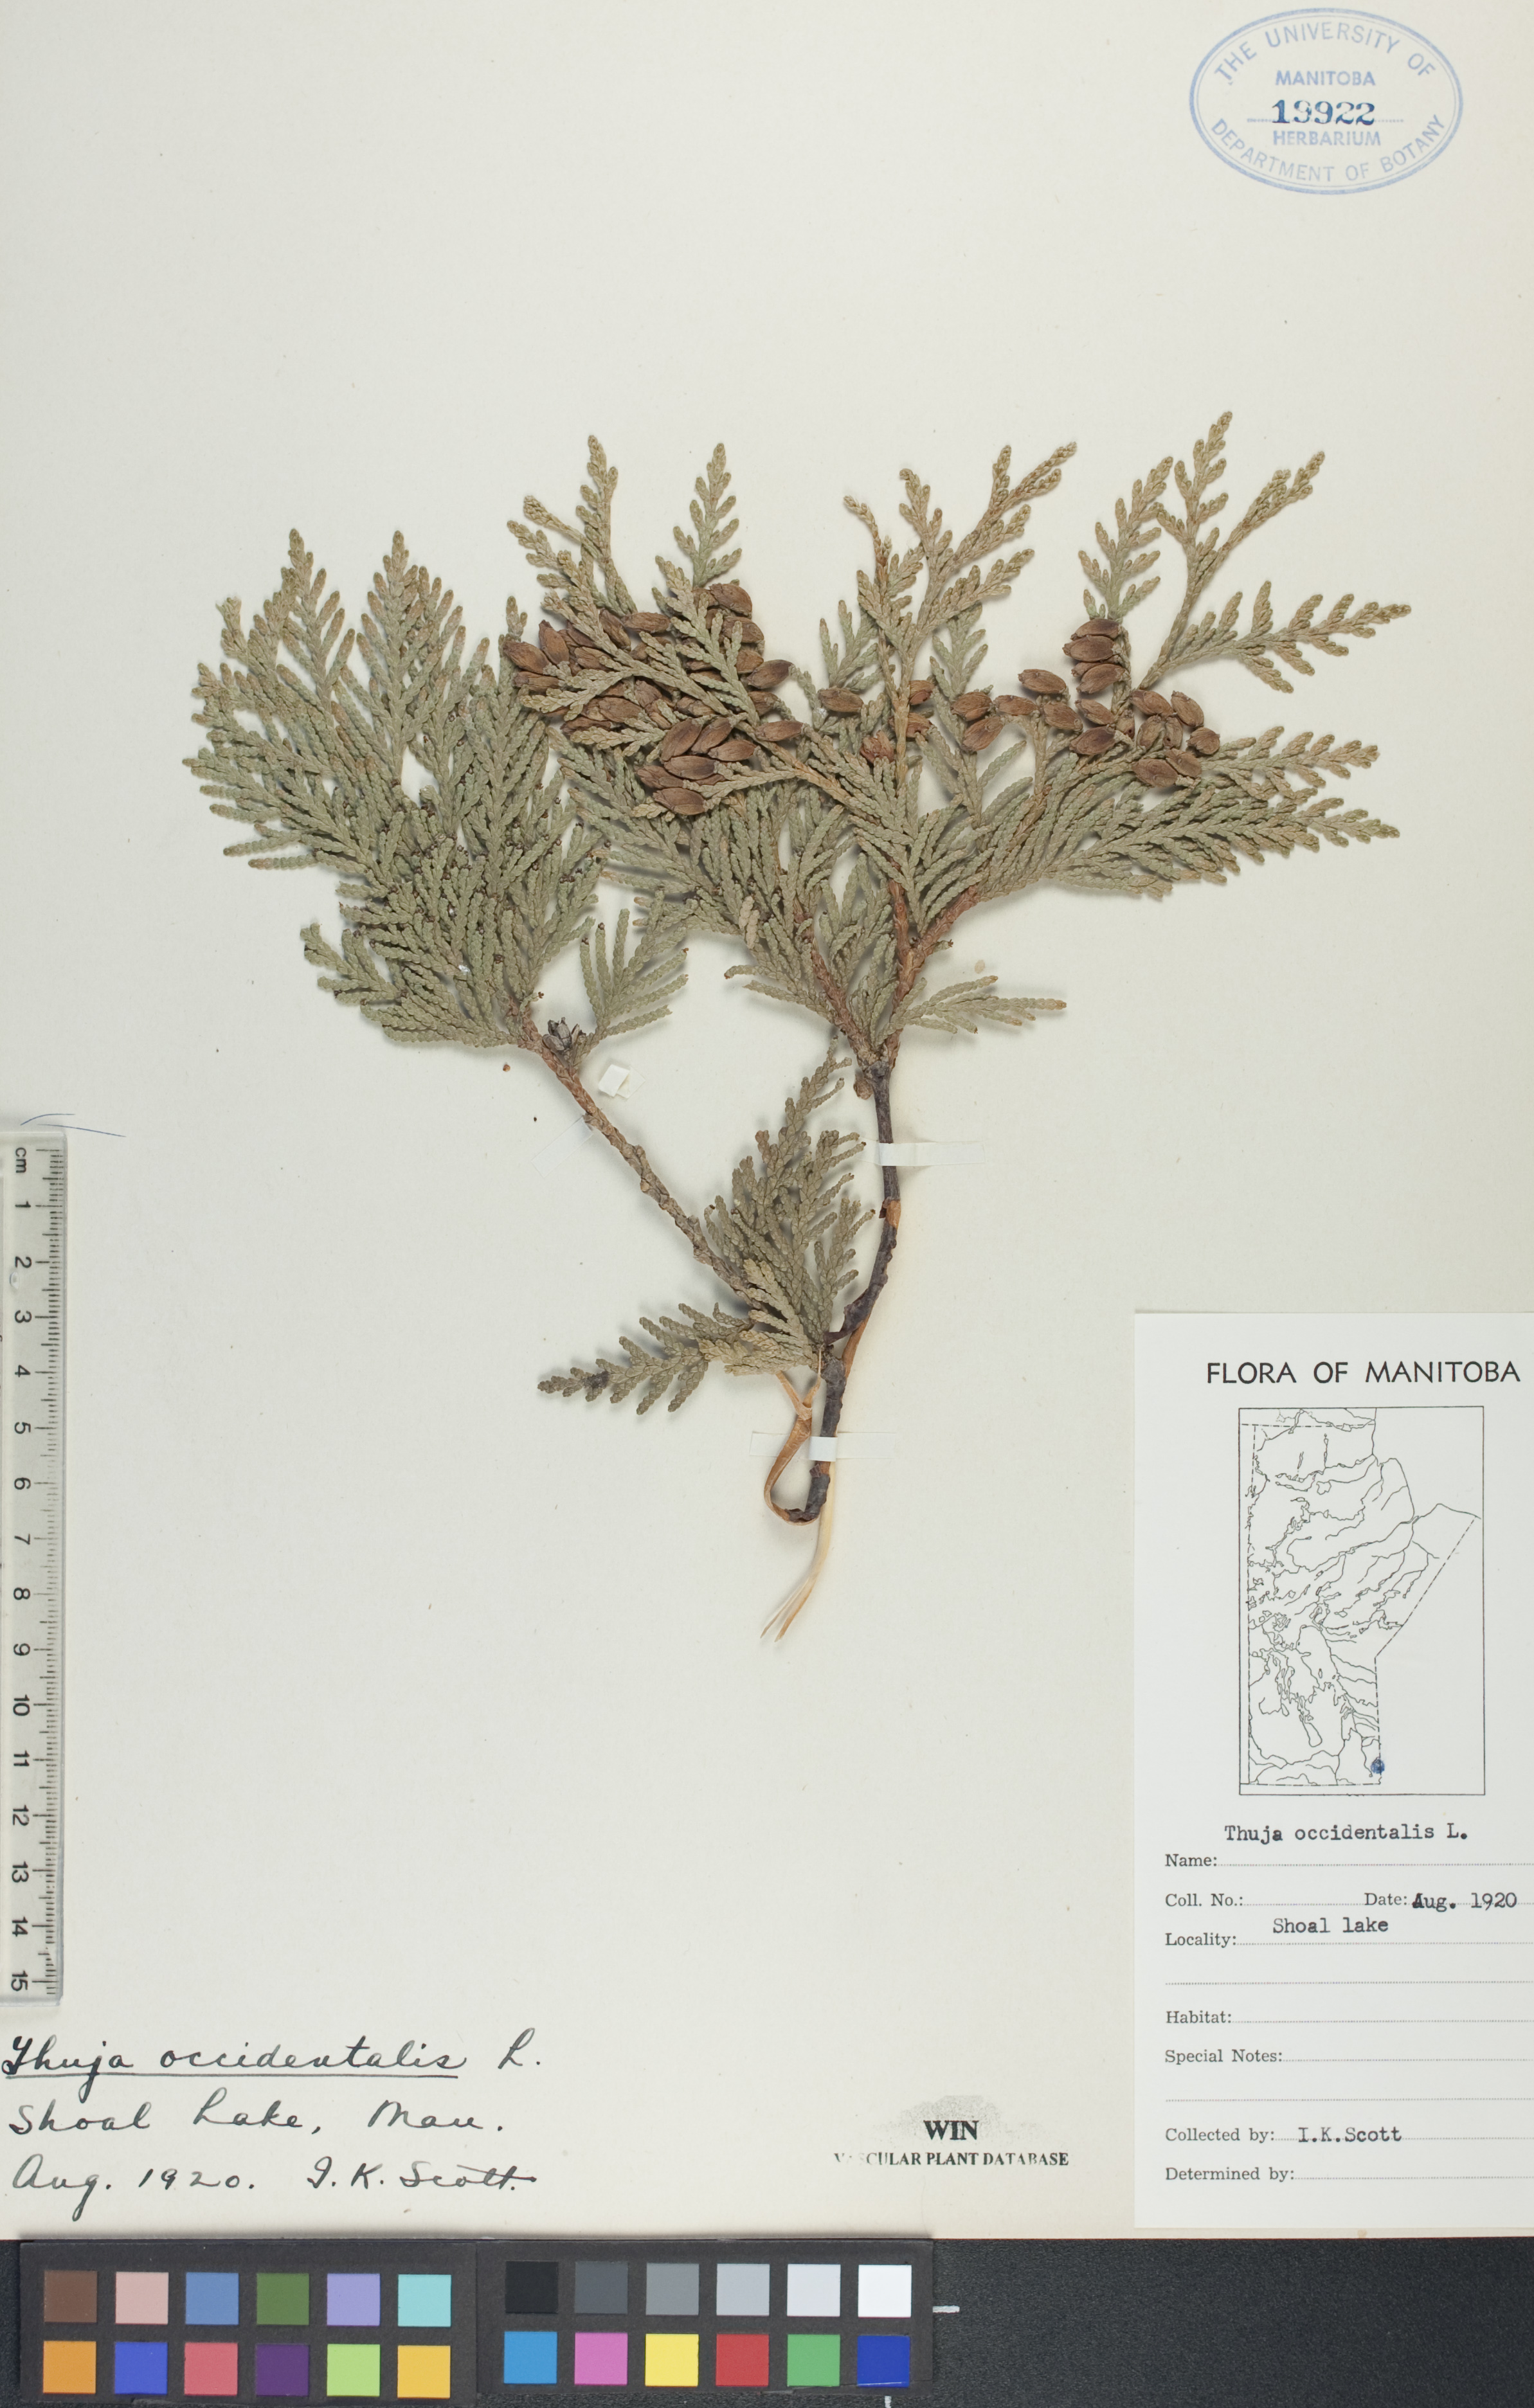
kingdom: Plantae
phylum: Tracheophyta
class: Pinopsida
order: Pinales
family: Cupressaceae
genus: Thuja
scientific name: Thuja occidentalis
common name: Northern white-cedar
